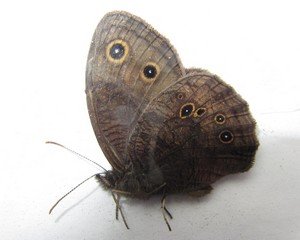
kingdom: Animalia
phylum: Arthropoda
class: Insecta
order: Lepidoptera
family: Nymphalidae
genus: Cercyonis
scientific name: Cercyonis pegala
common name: Common Wood-Nymph
